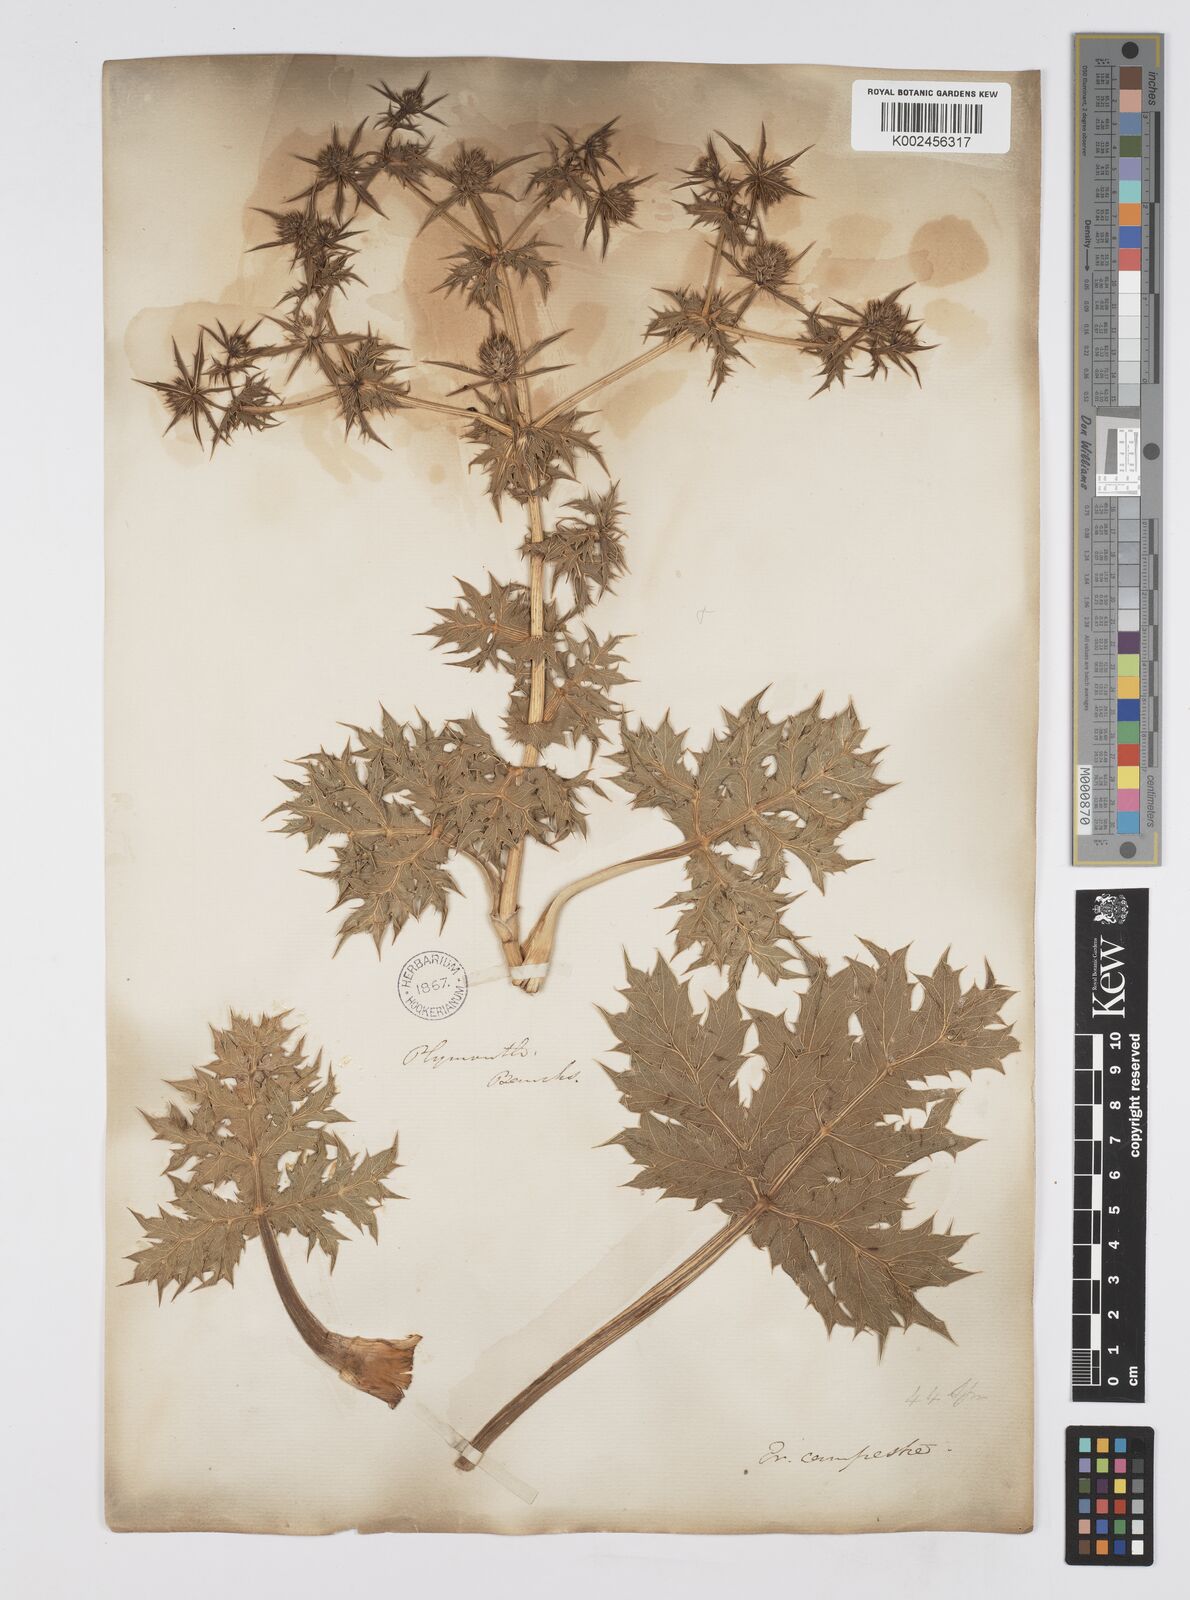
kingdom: Plantae
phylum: Tracheophyta
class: Magnoliopsida
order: Apiales
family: Apiaceae
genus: Eryngium
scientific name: Eryngium campestre
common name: Field eryngo
